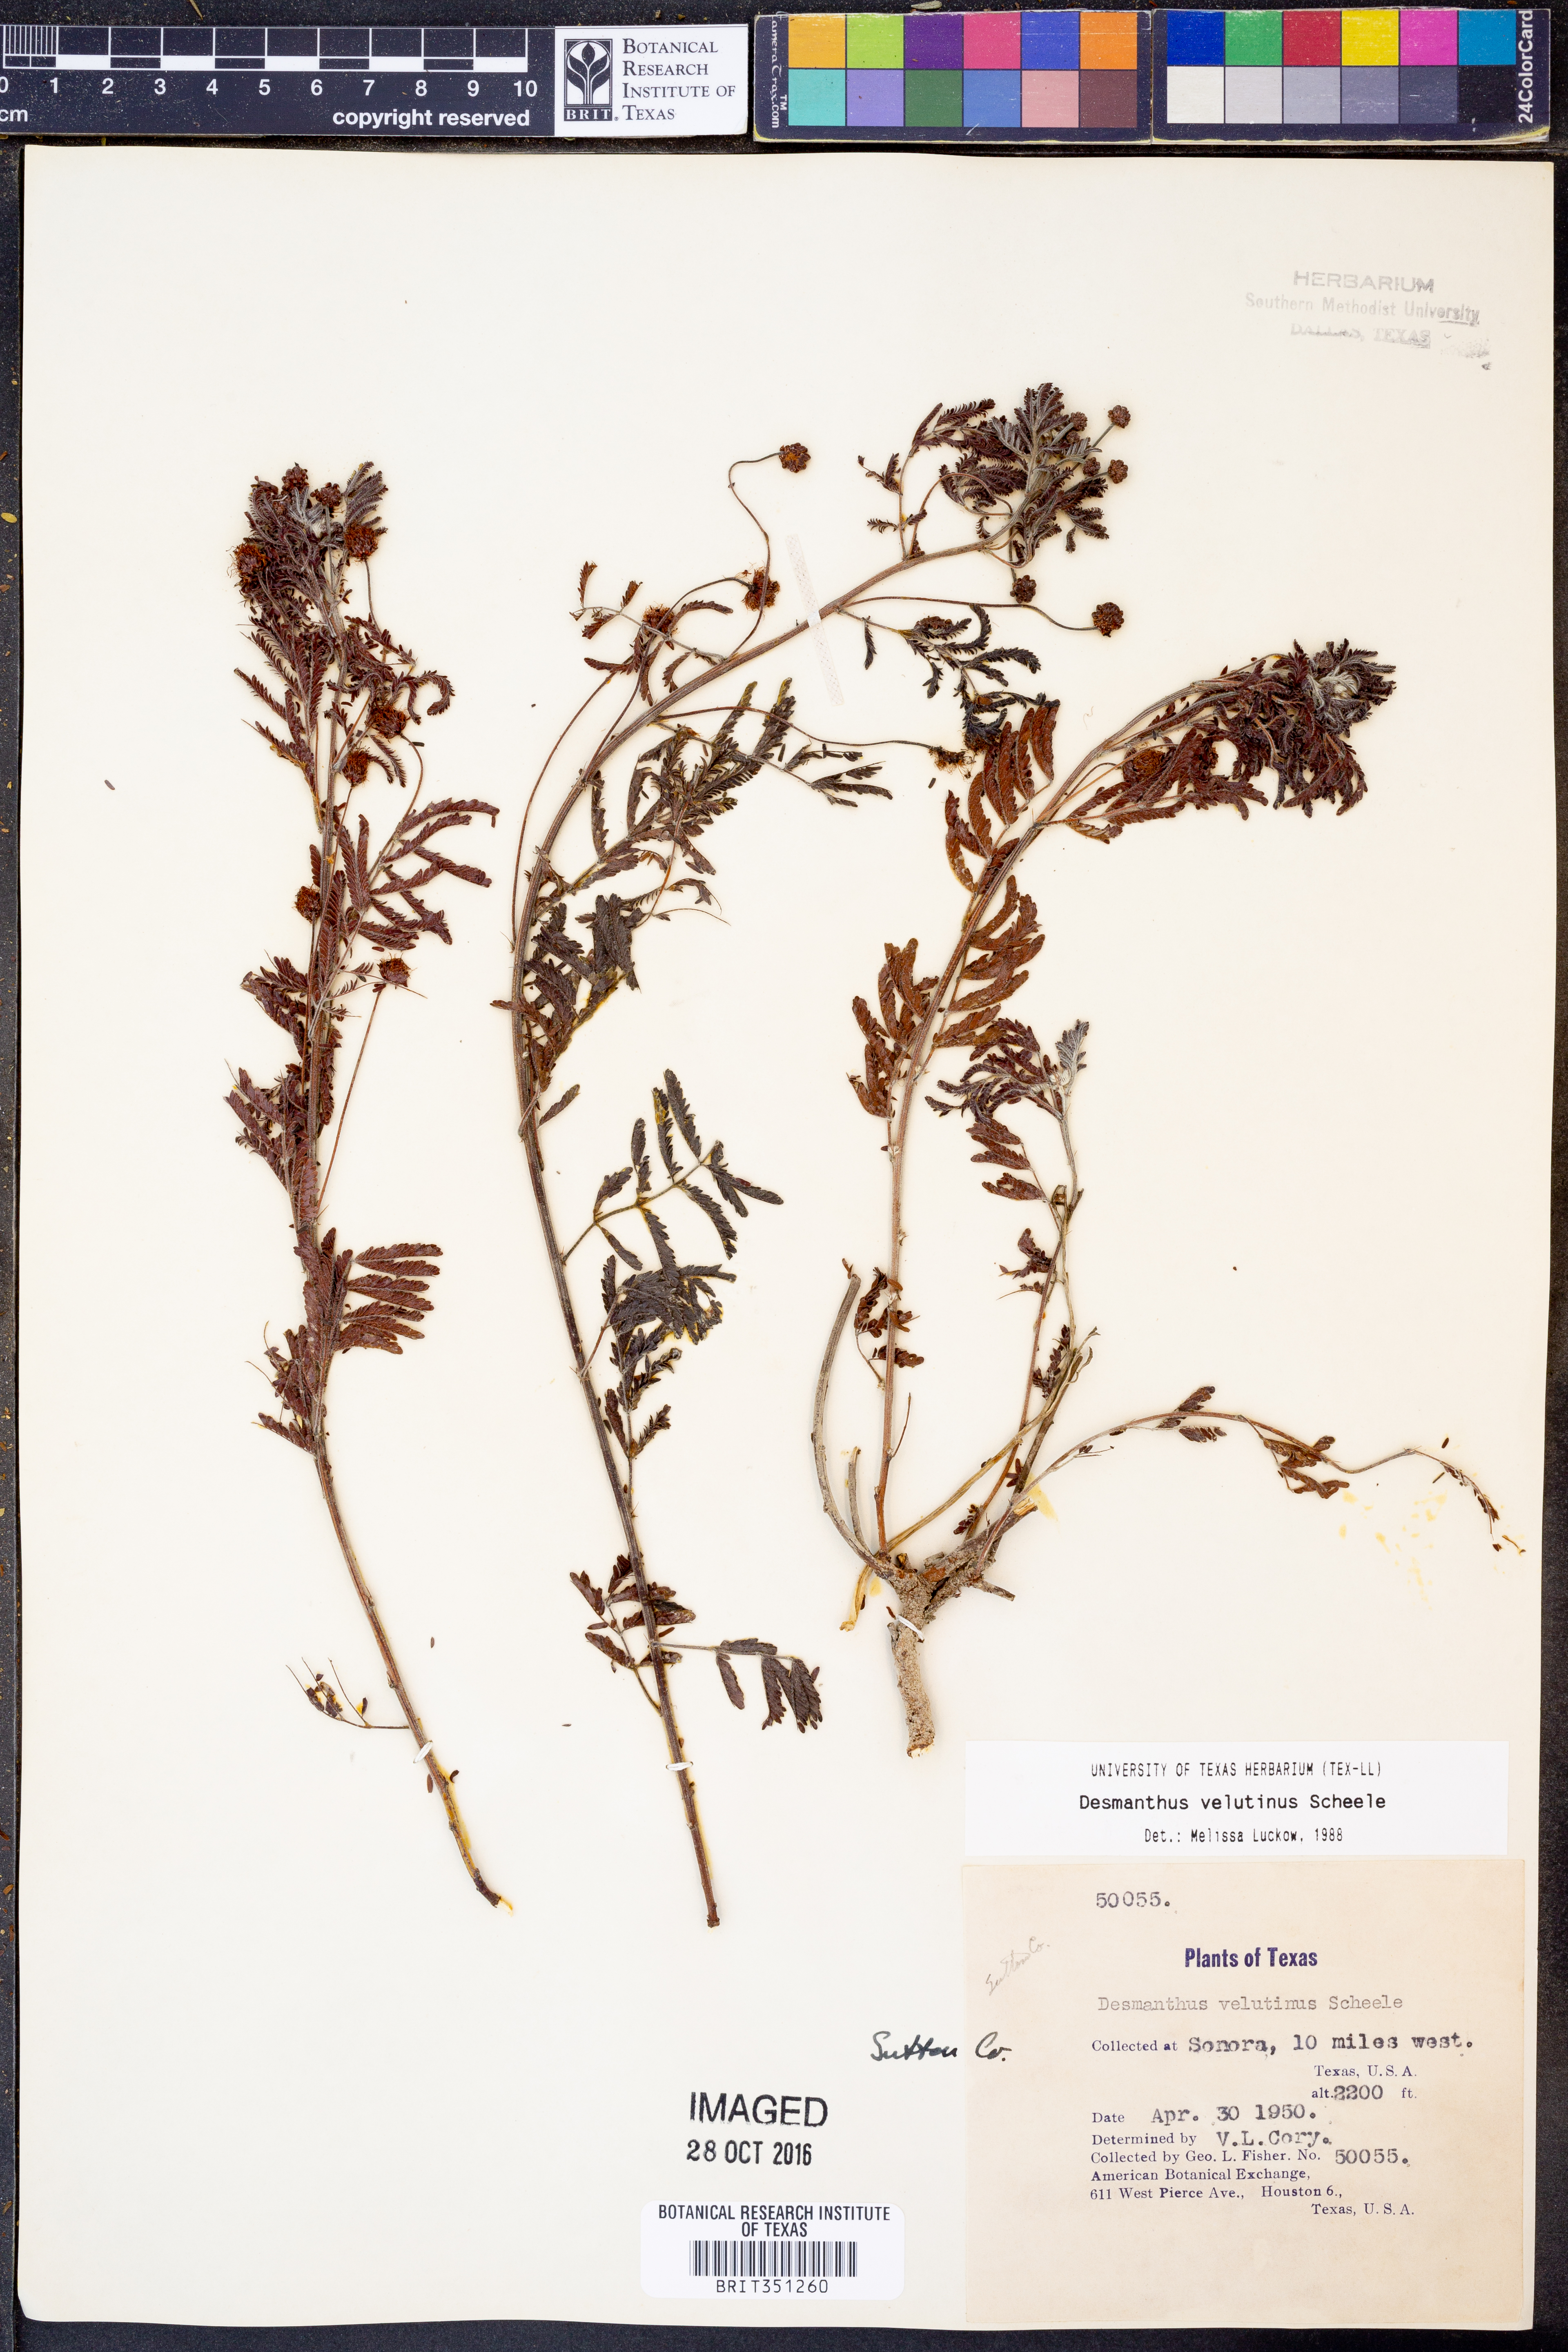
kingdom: Plantae
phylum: Tracheophyta
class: Magnoliopsida
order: Fabales
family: Fabaceae
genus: Desmanthus
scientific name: Desmanthus velutinus
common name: Velvet bundle-flower
